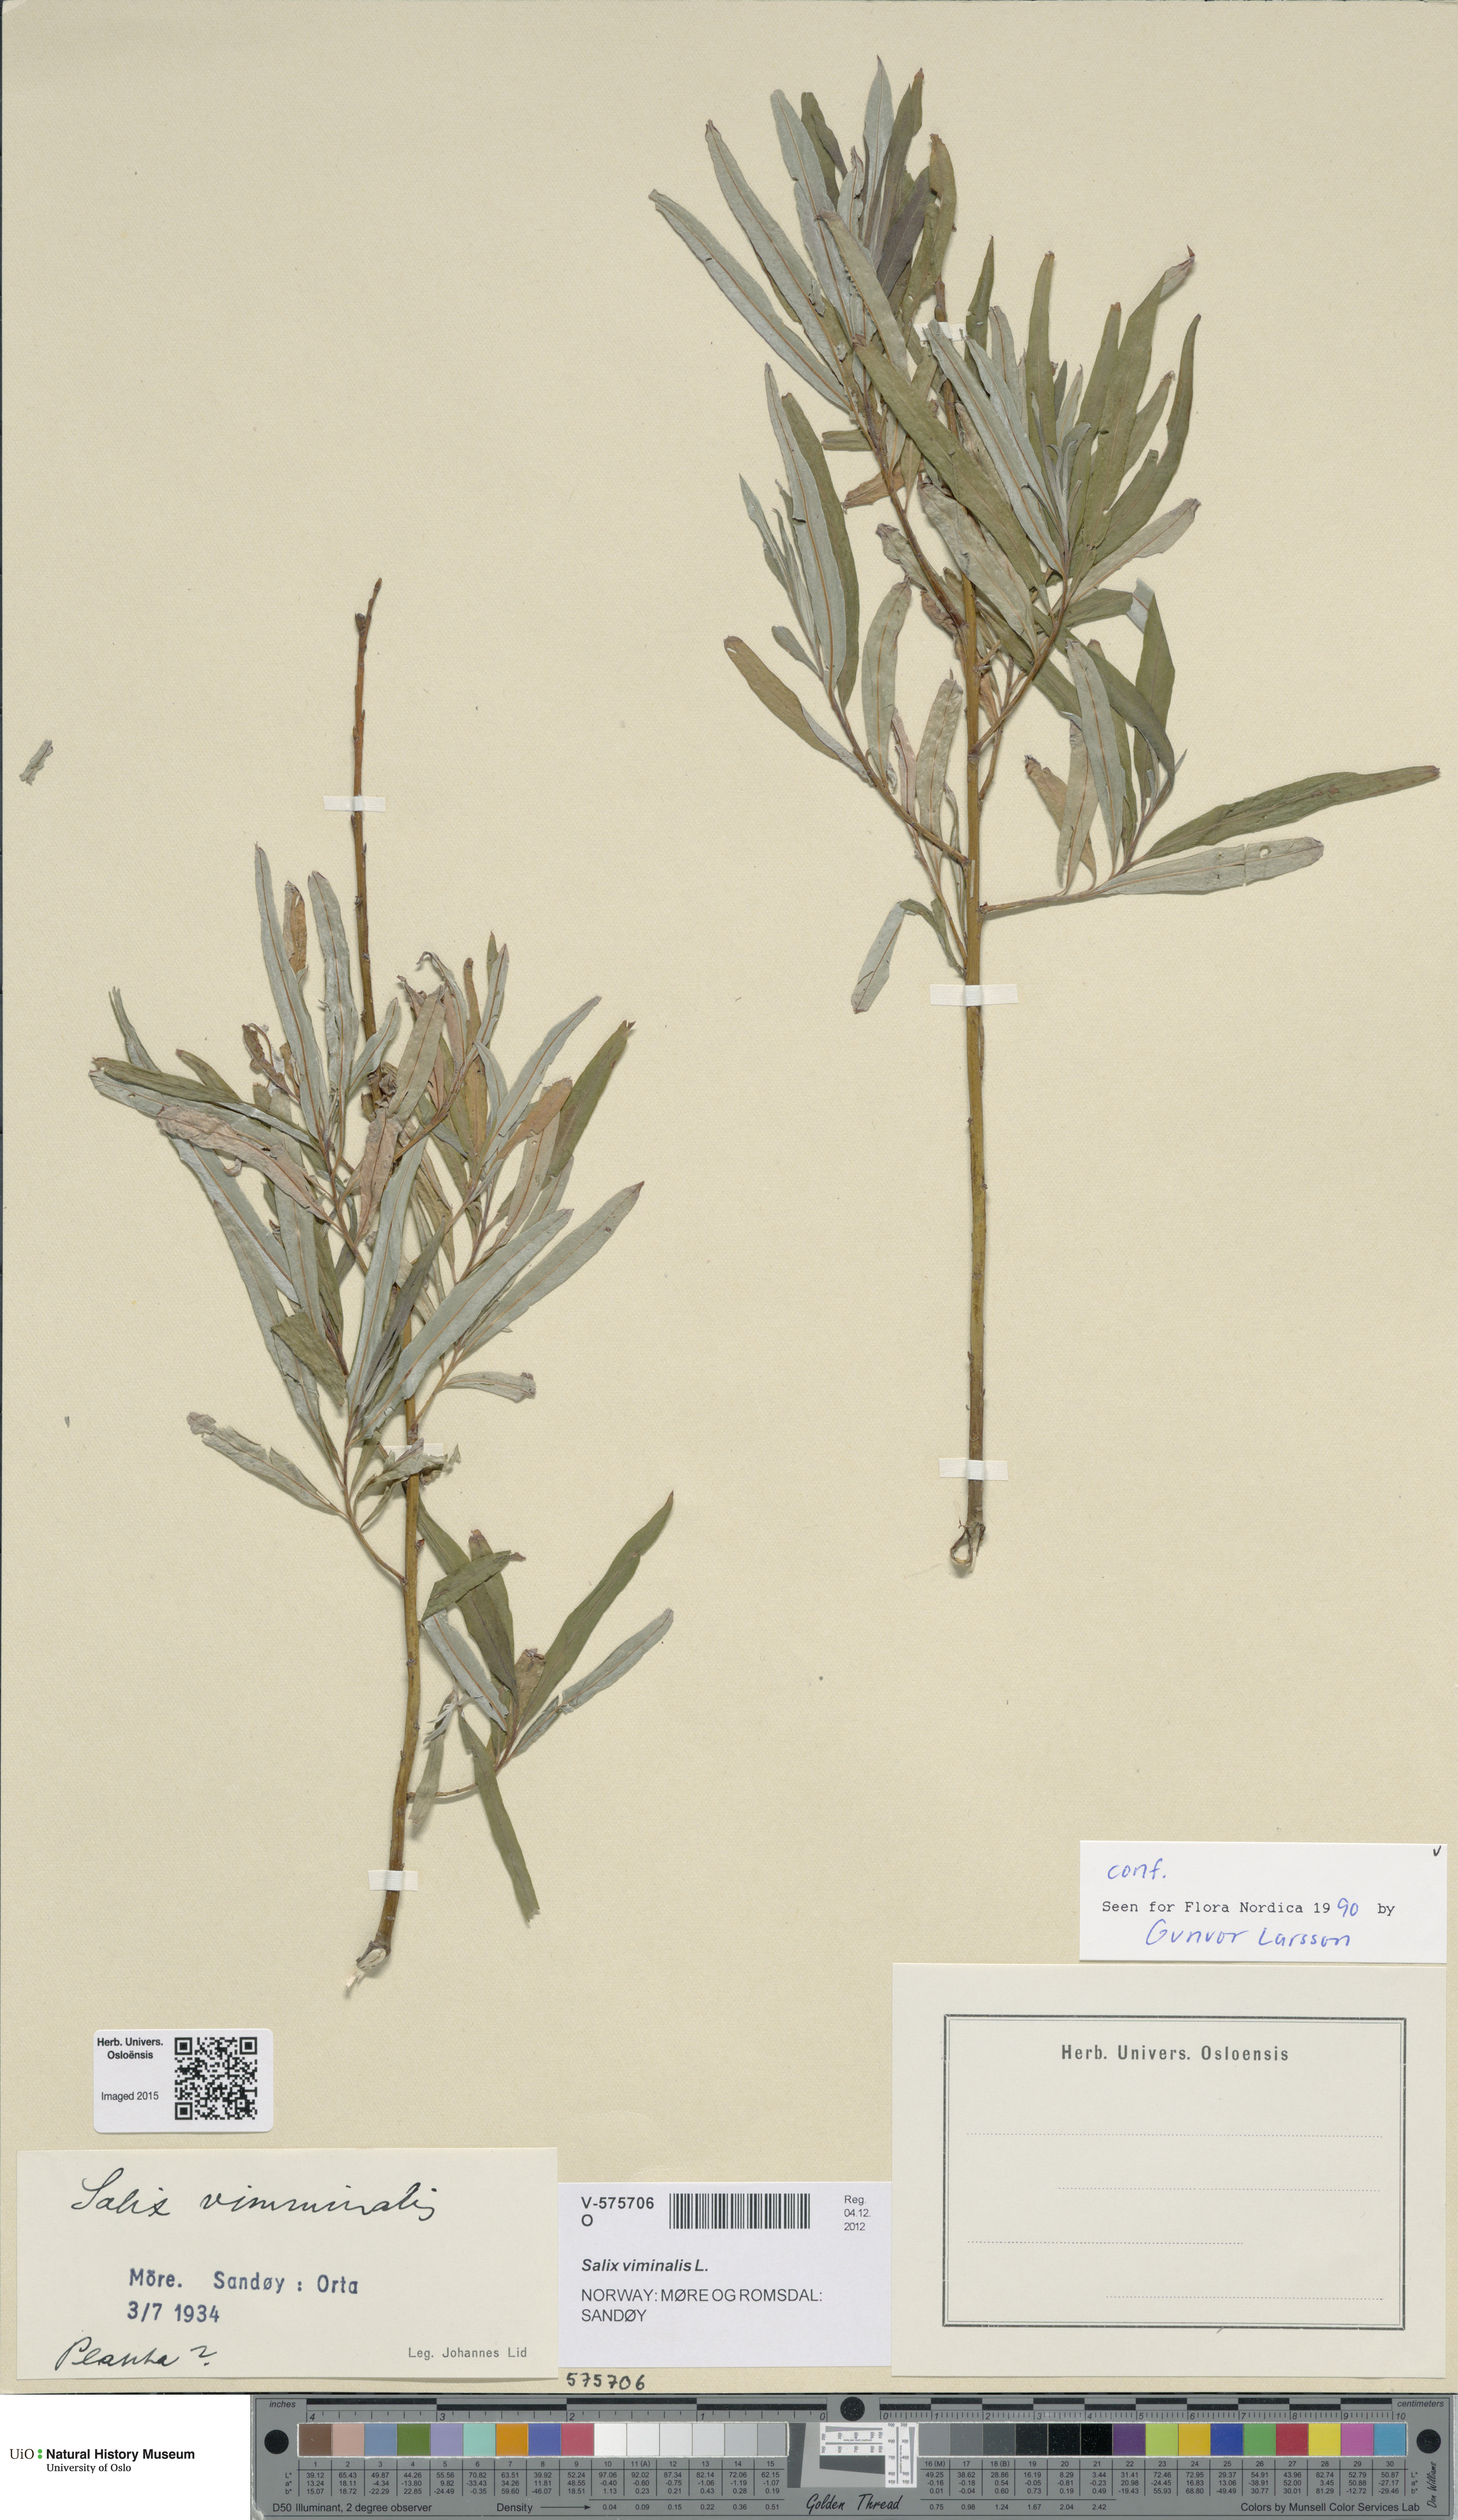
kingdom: Plantae
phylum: Tracheophyta
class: Magnoliopsida
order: Malpighiales
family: Salicaceae
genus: Salix
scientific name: Salix viminalis
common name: Osier
